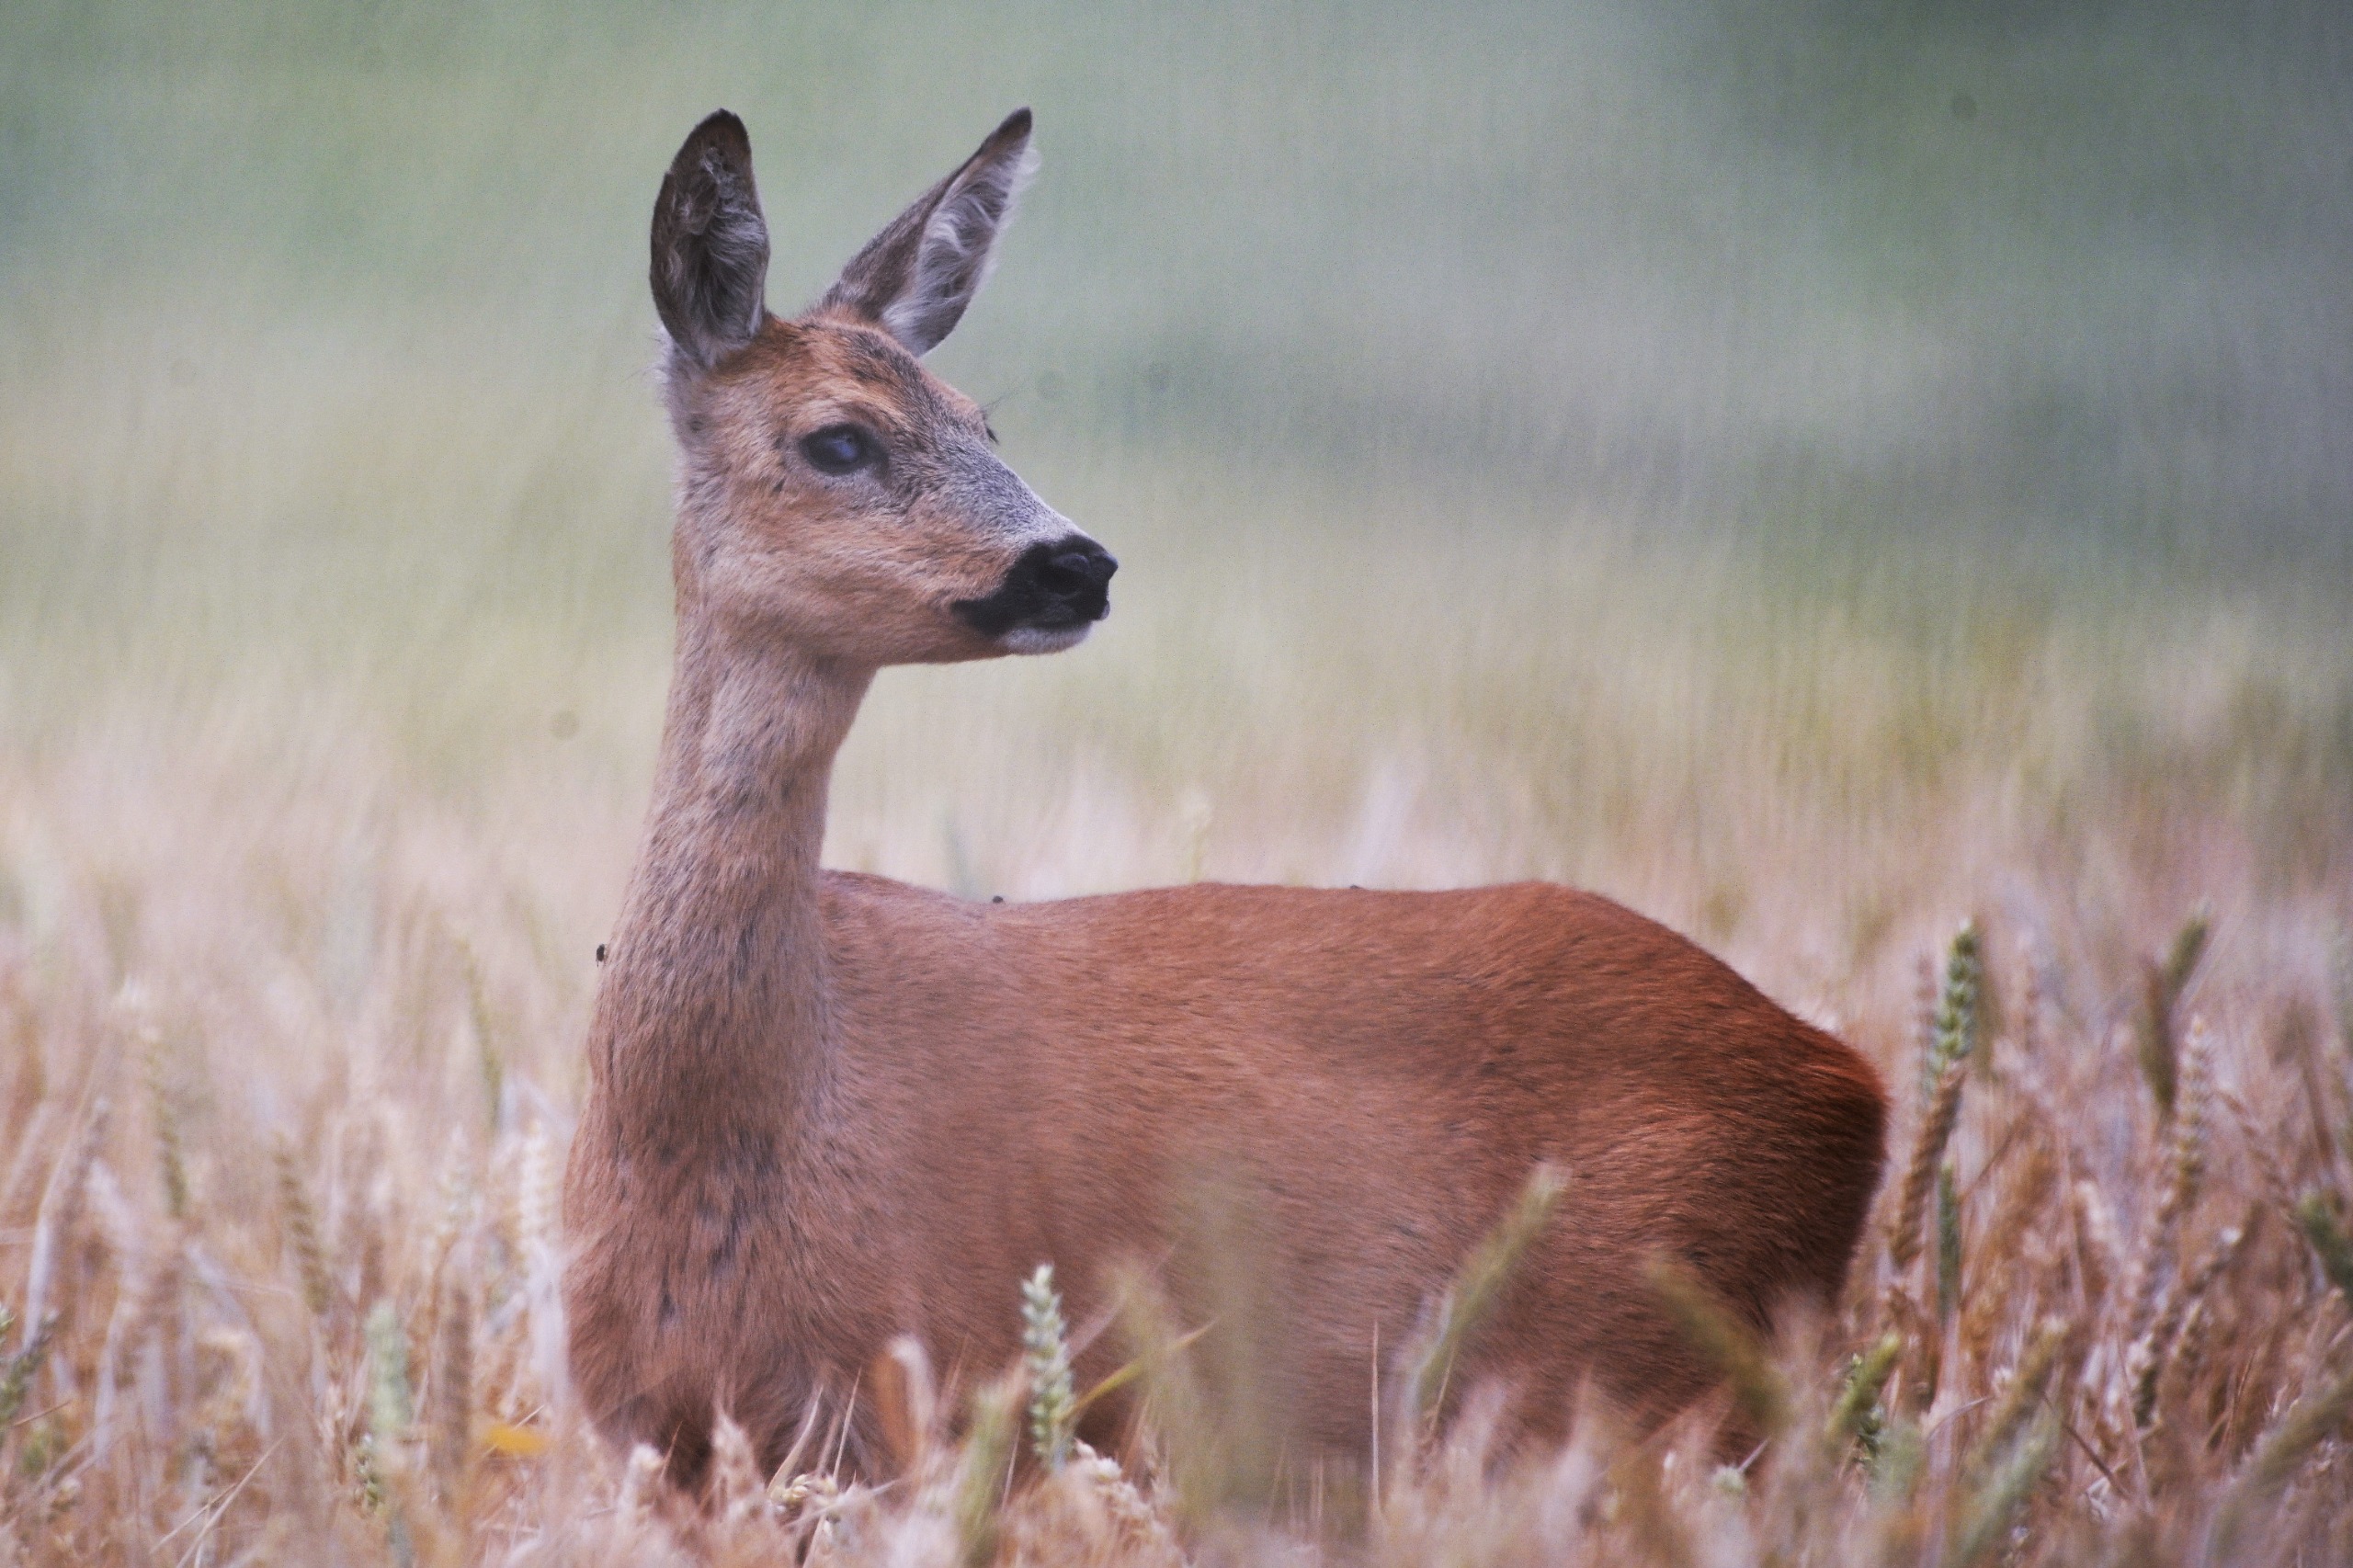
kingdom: Animalia
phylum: Chordata
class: Mammalia
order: Artiodactyla
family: Cervidae
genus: Capreolus
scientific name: Capreolus capreolus
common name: Rådyr
